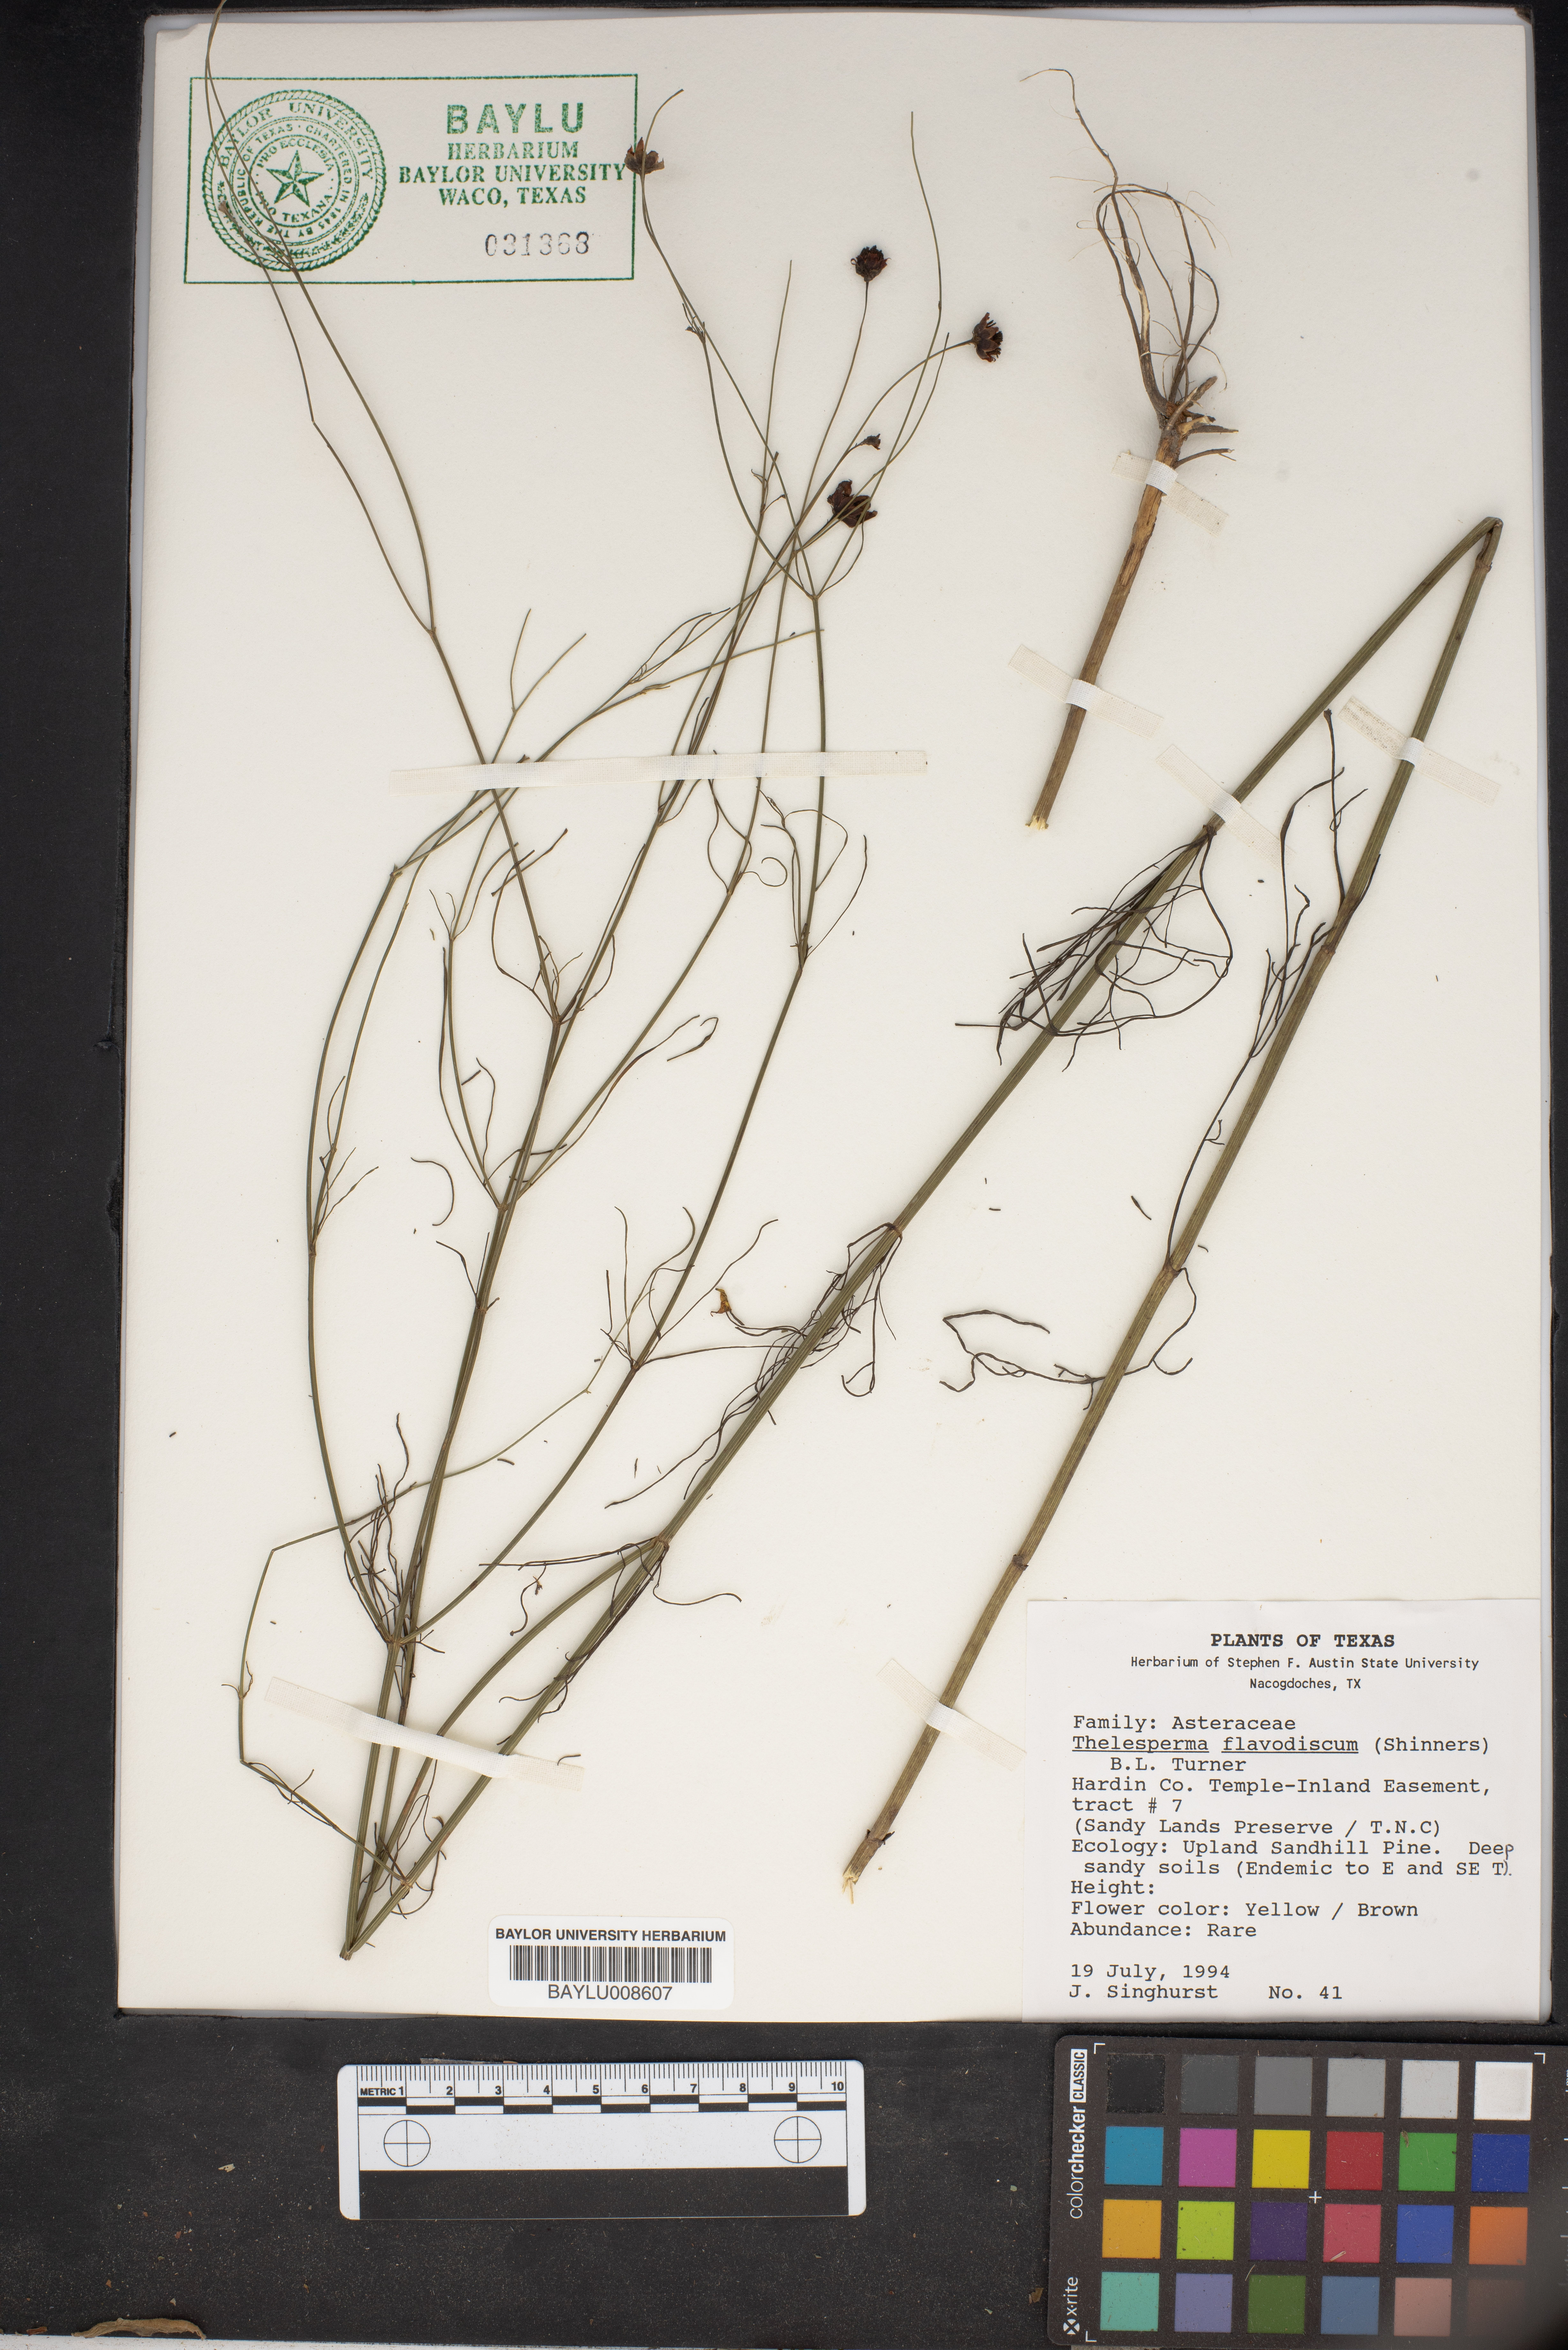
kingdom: Plantae
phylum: Tracheophyta
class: Magnoliopsida
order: Asterales
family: Asteraceae
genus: Thelesperma
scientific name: Thelesperma flavodiscum
